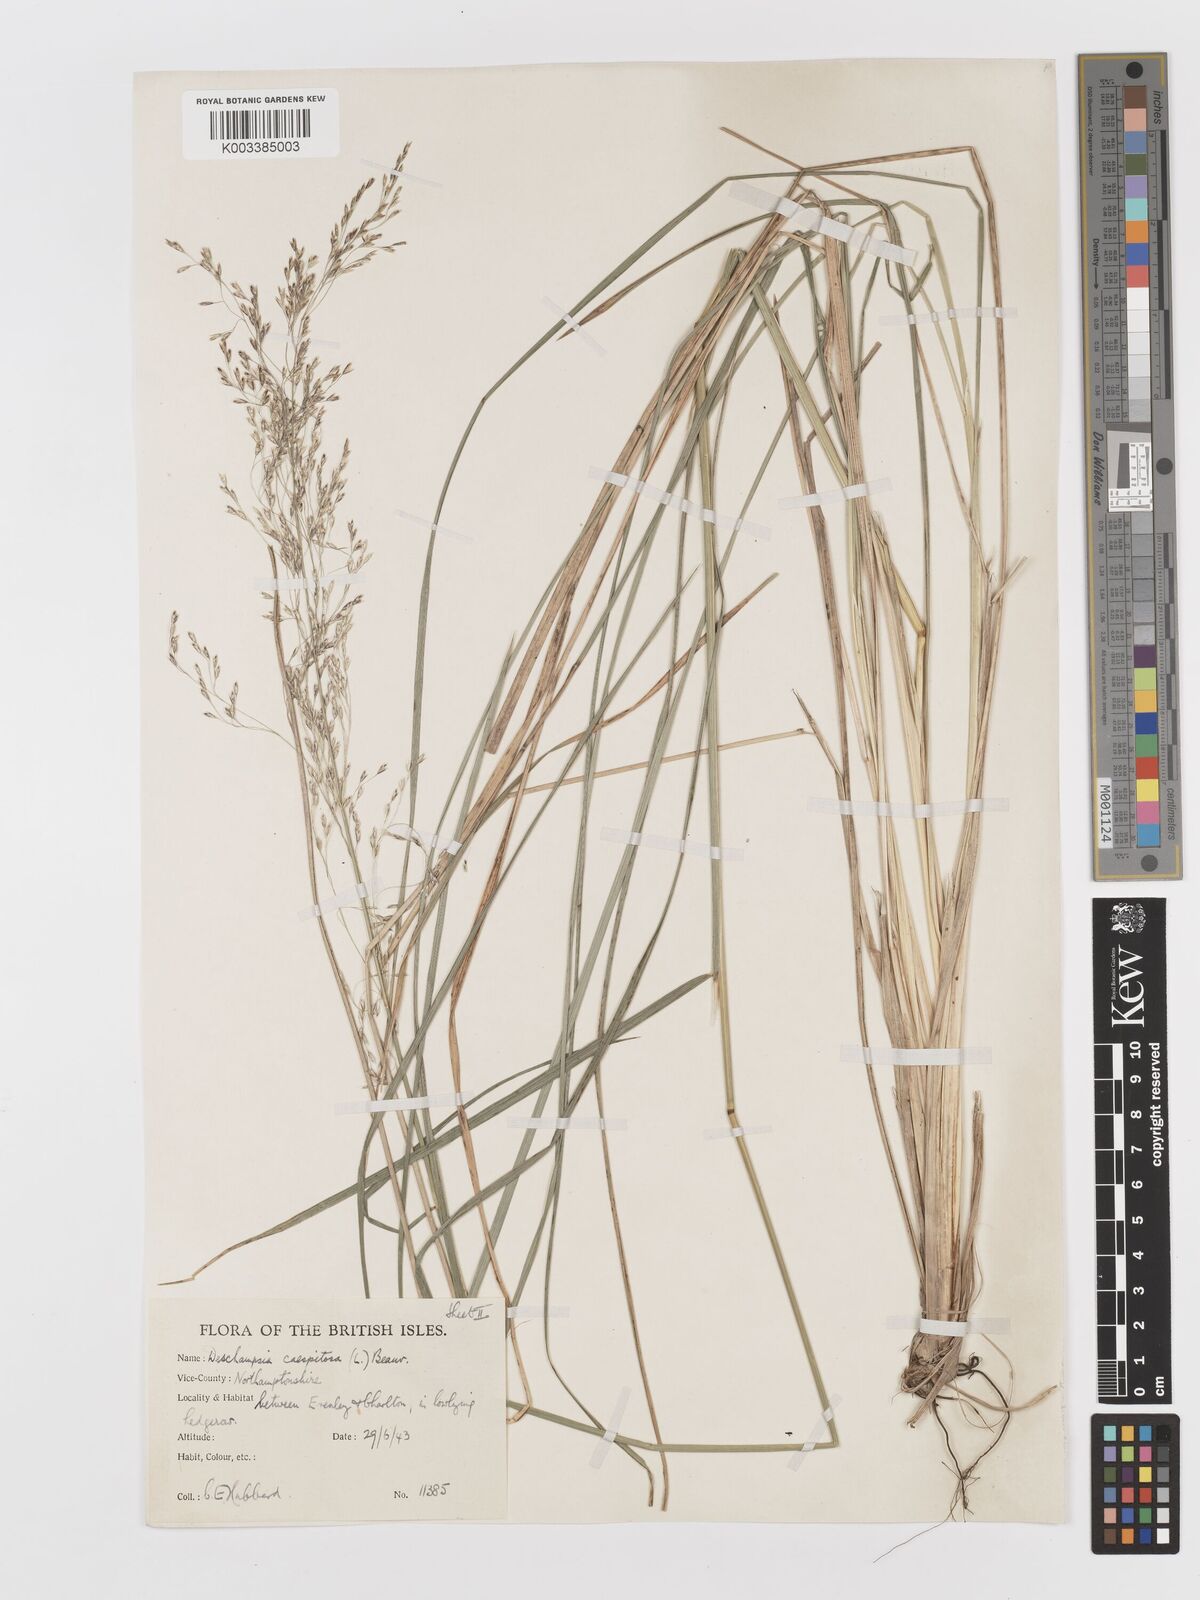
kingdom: Plantae
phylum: Tracheophyta
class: Liliopsida
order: Poales
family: Poaceae
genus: Deschampsia
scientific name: Deschampsia cespitosa
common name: Tufted hair-grass
